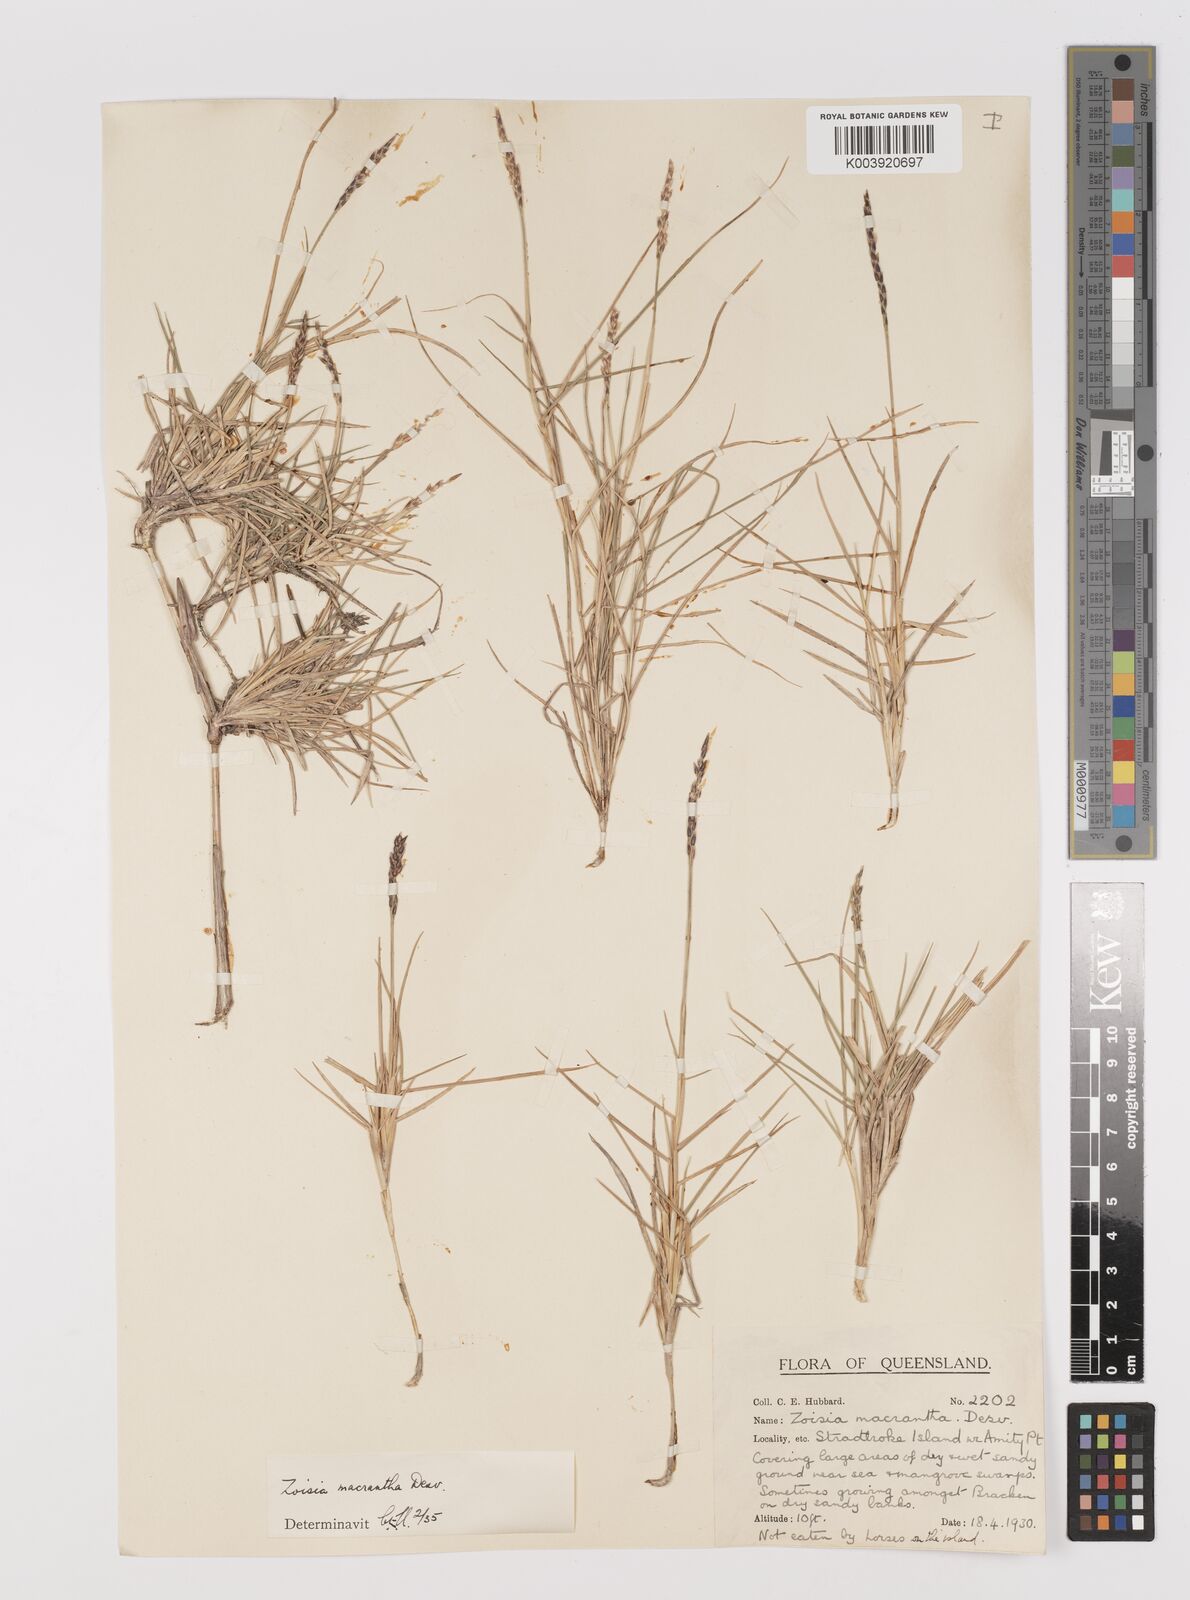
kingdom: Plantae
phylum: Tracheophyta
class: Liliopsida
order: Poales
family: Poaceae
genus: Zoysia
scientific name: Zoysia macrantha
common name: Korean lawn grass
